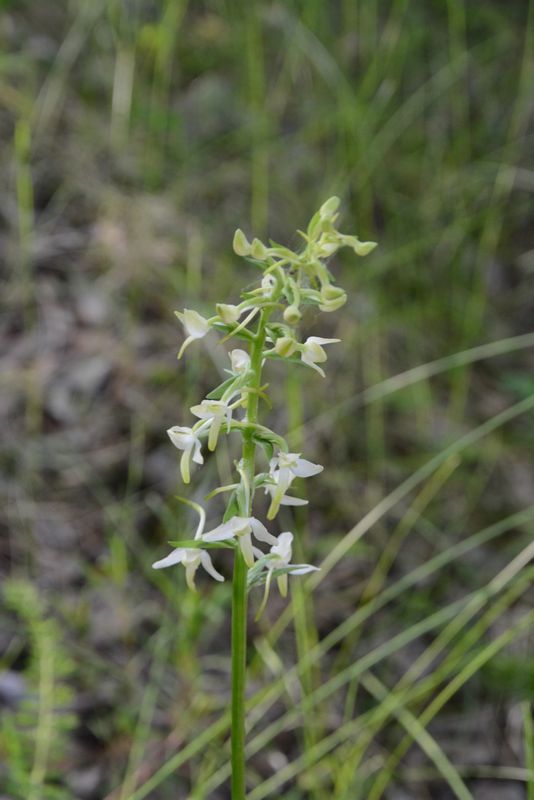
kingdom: Plantae
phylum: Tracheophyta
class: Liliopsida
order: Asparagales
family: Orchidaceae
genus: Platanthera
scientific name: Platanthera bifolia
